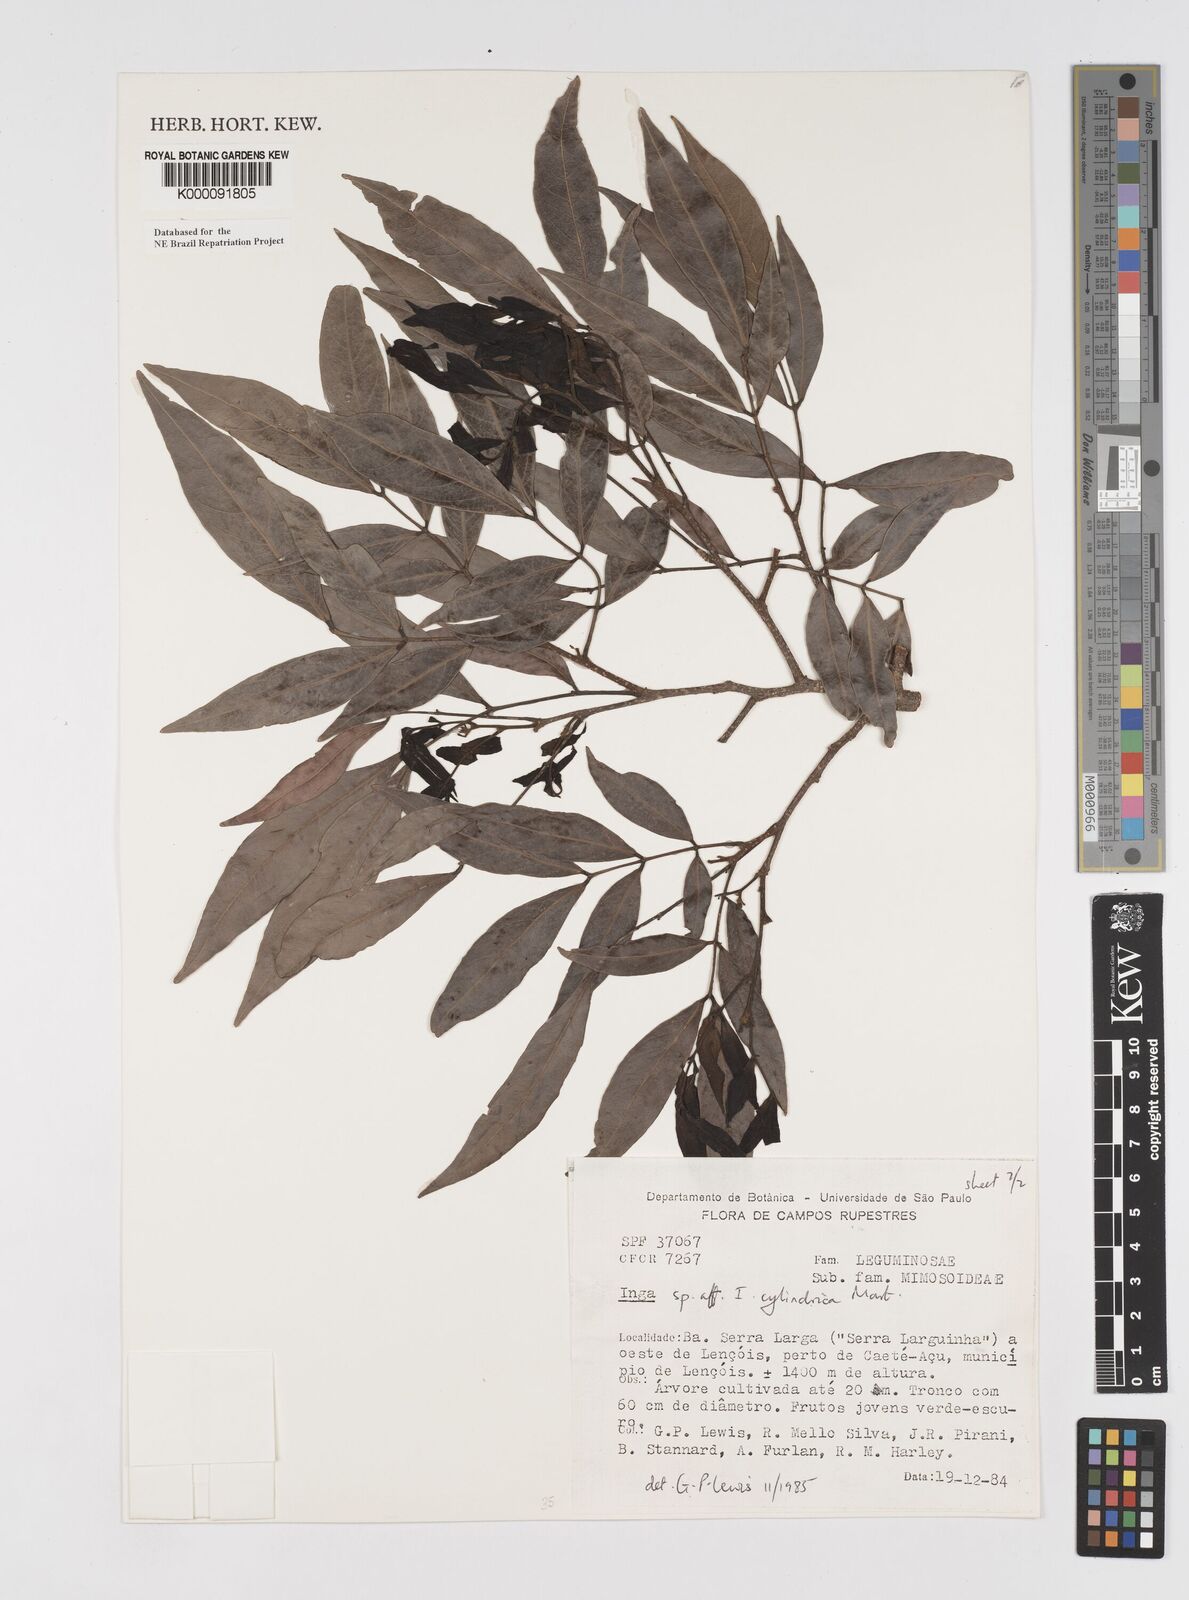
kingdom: Plantae
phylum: Tracheophyta
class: Magnoliopsida
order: Fabales
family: Fabaceae
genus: Inga
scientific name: Inga cylindrica
